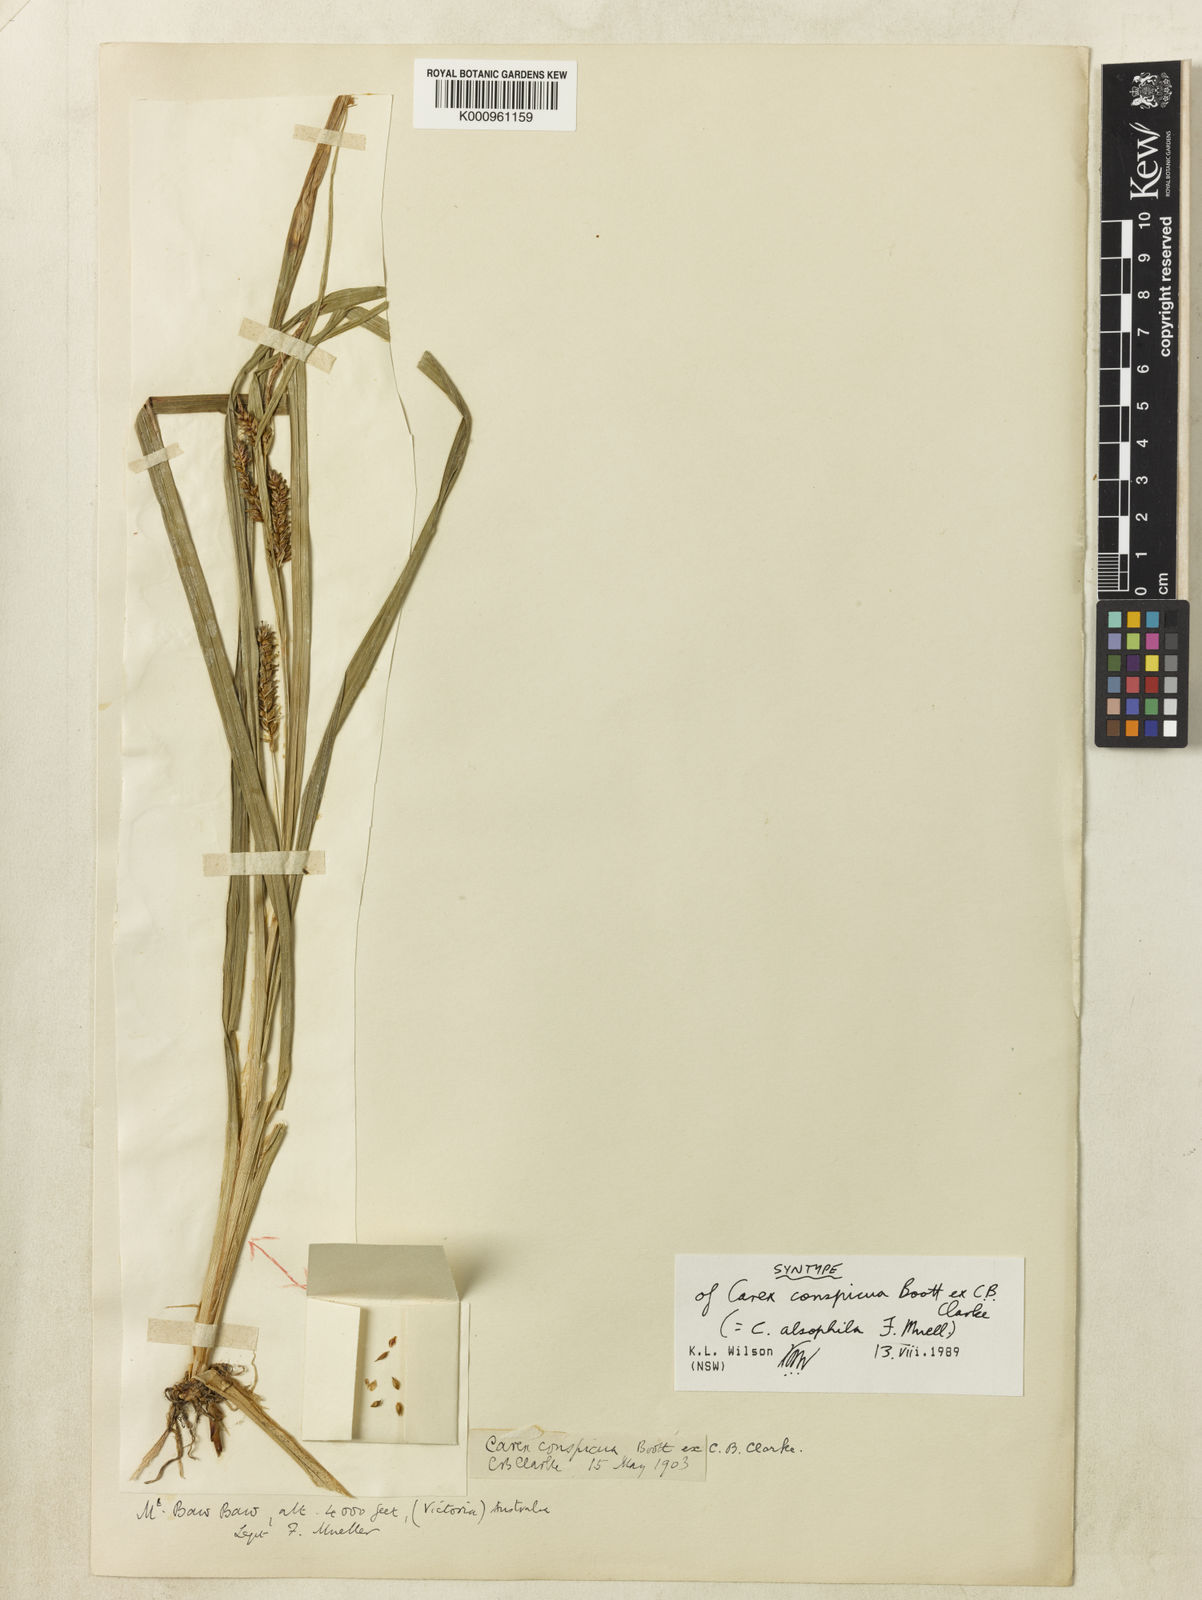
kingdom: Plantae
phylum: Tracheophyta
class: Liliopsida
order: Poales
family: Cyperaceae
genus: Carex
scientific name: Carex alsophila
